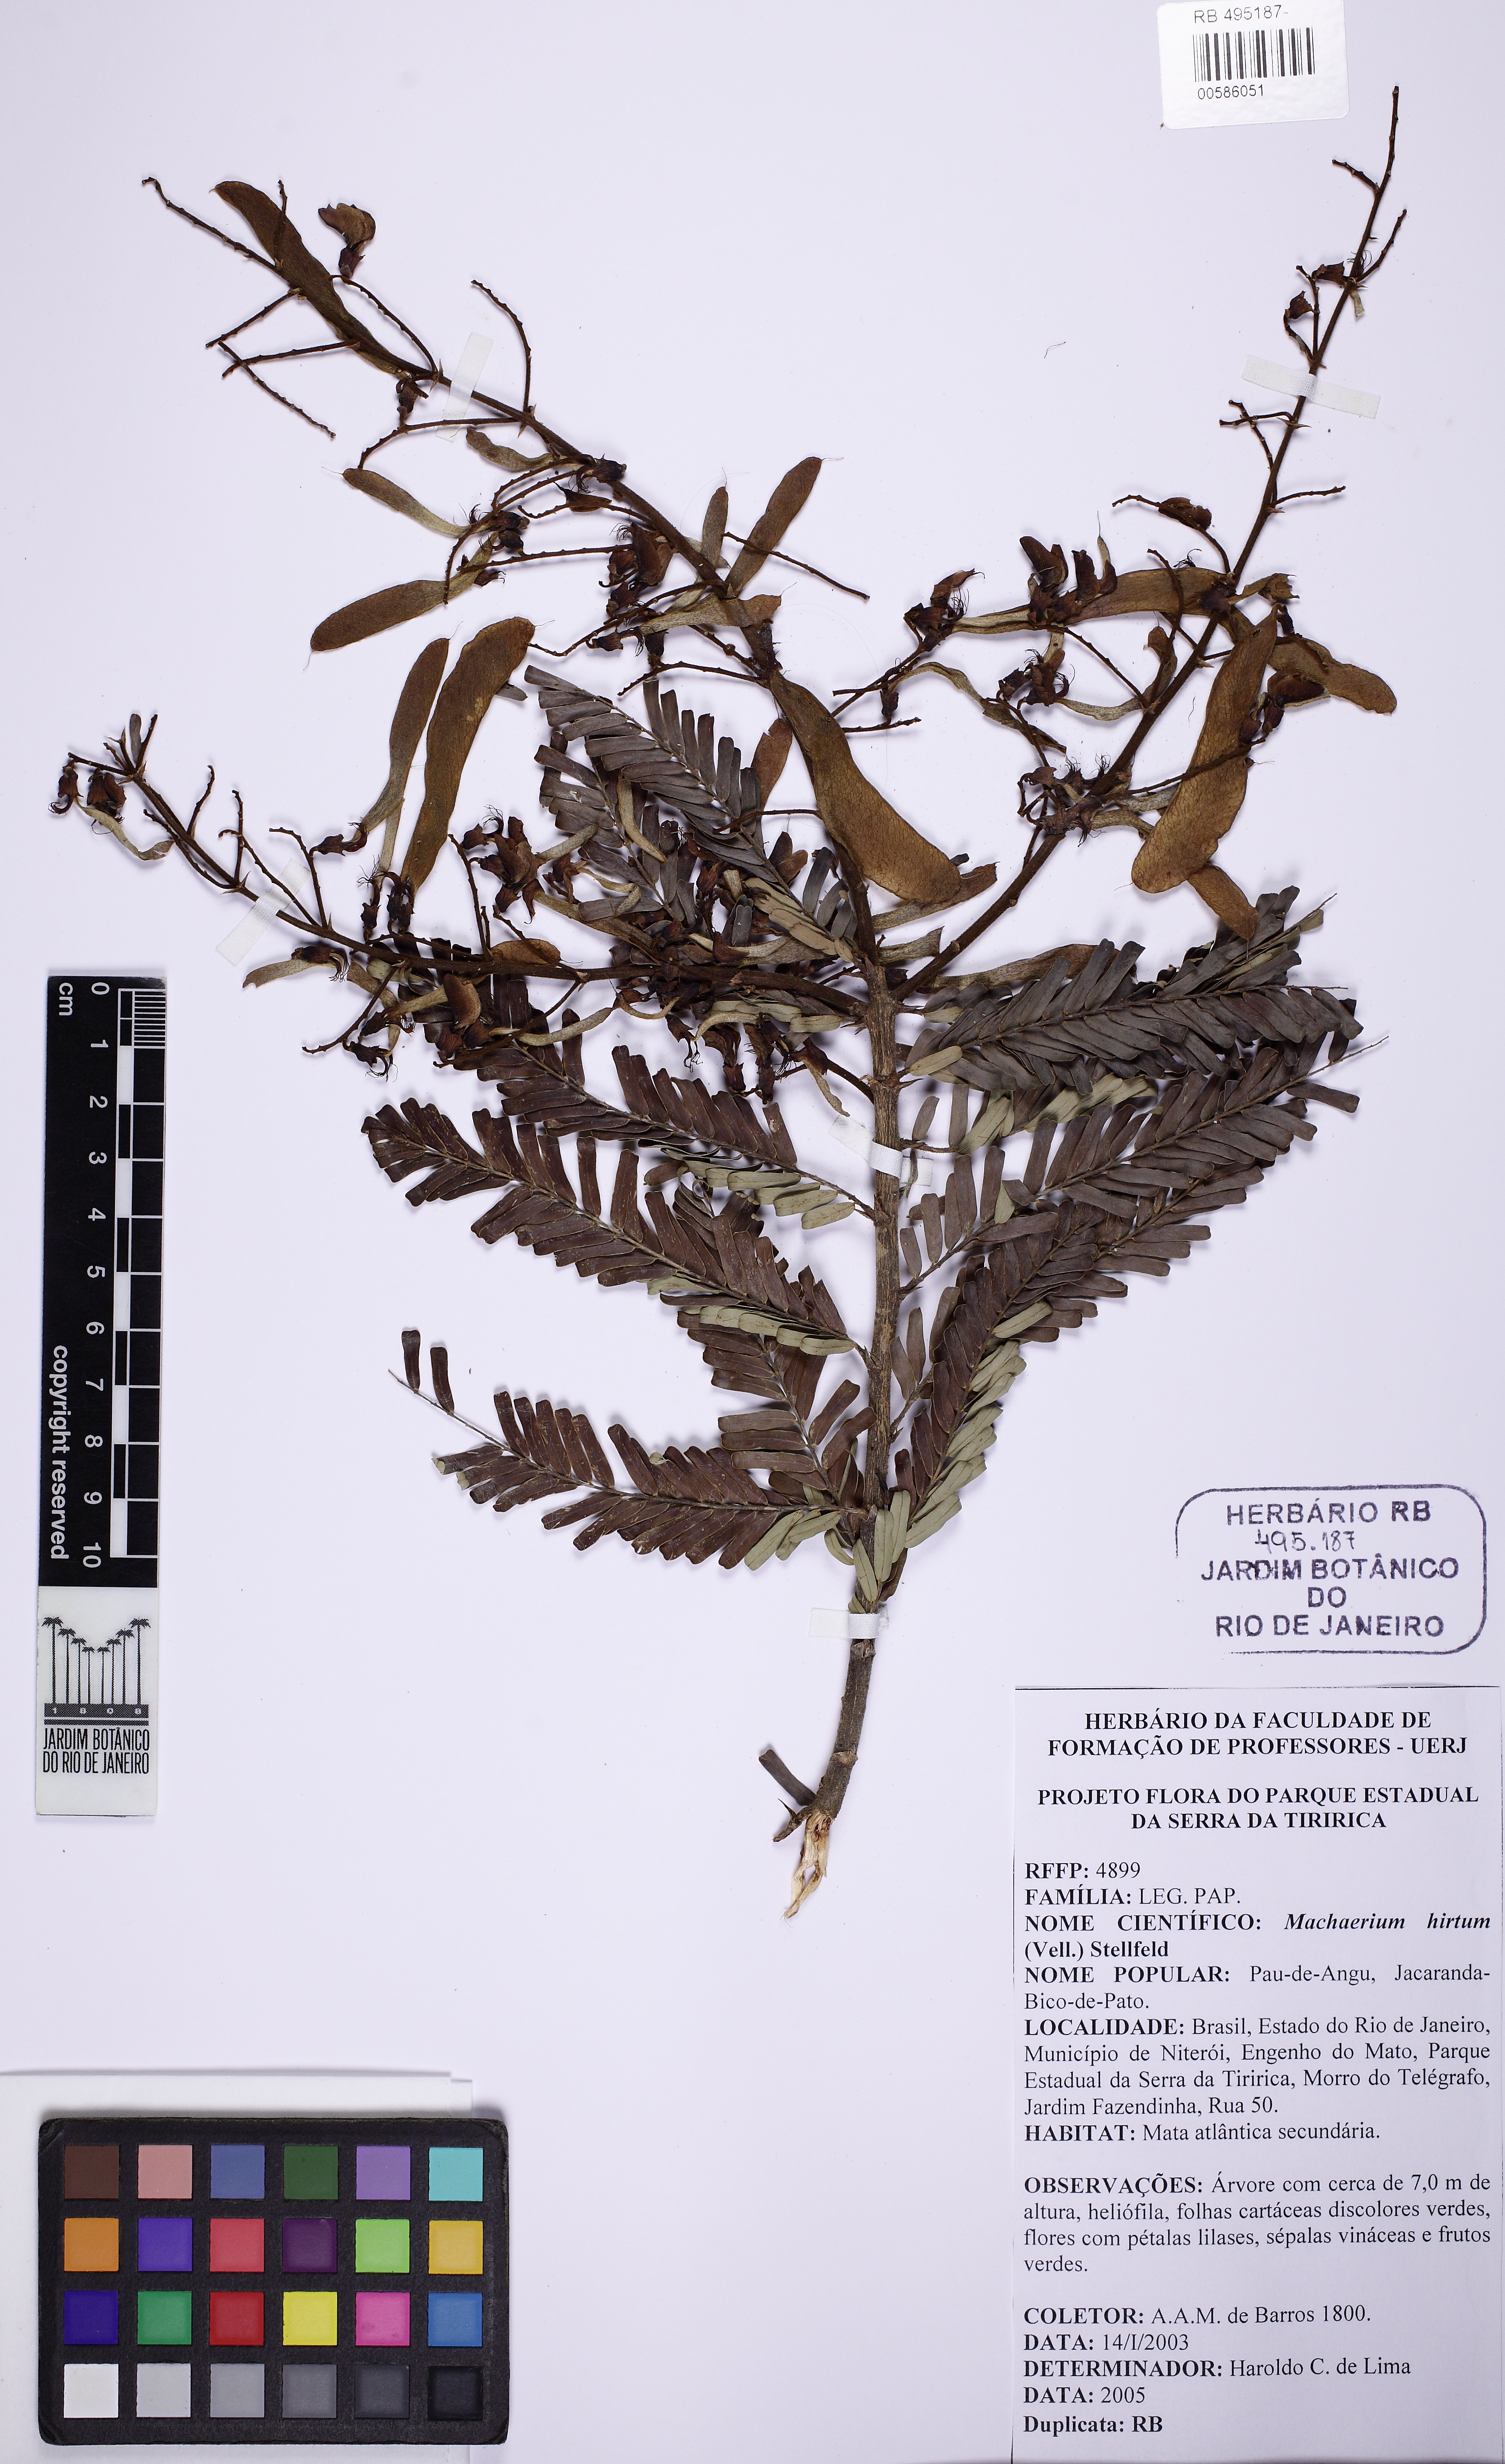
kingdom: Plantae
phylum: Tracheophyta
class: Magnoliopsida
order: Fabales
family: Fabaceae
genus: Machaerium
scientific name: Machaerium hirtum
